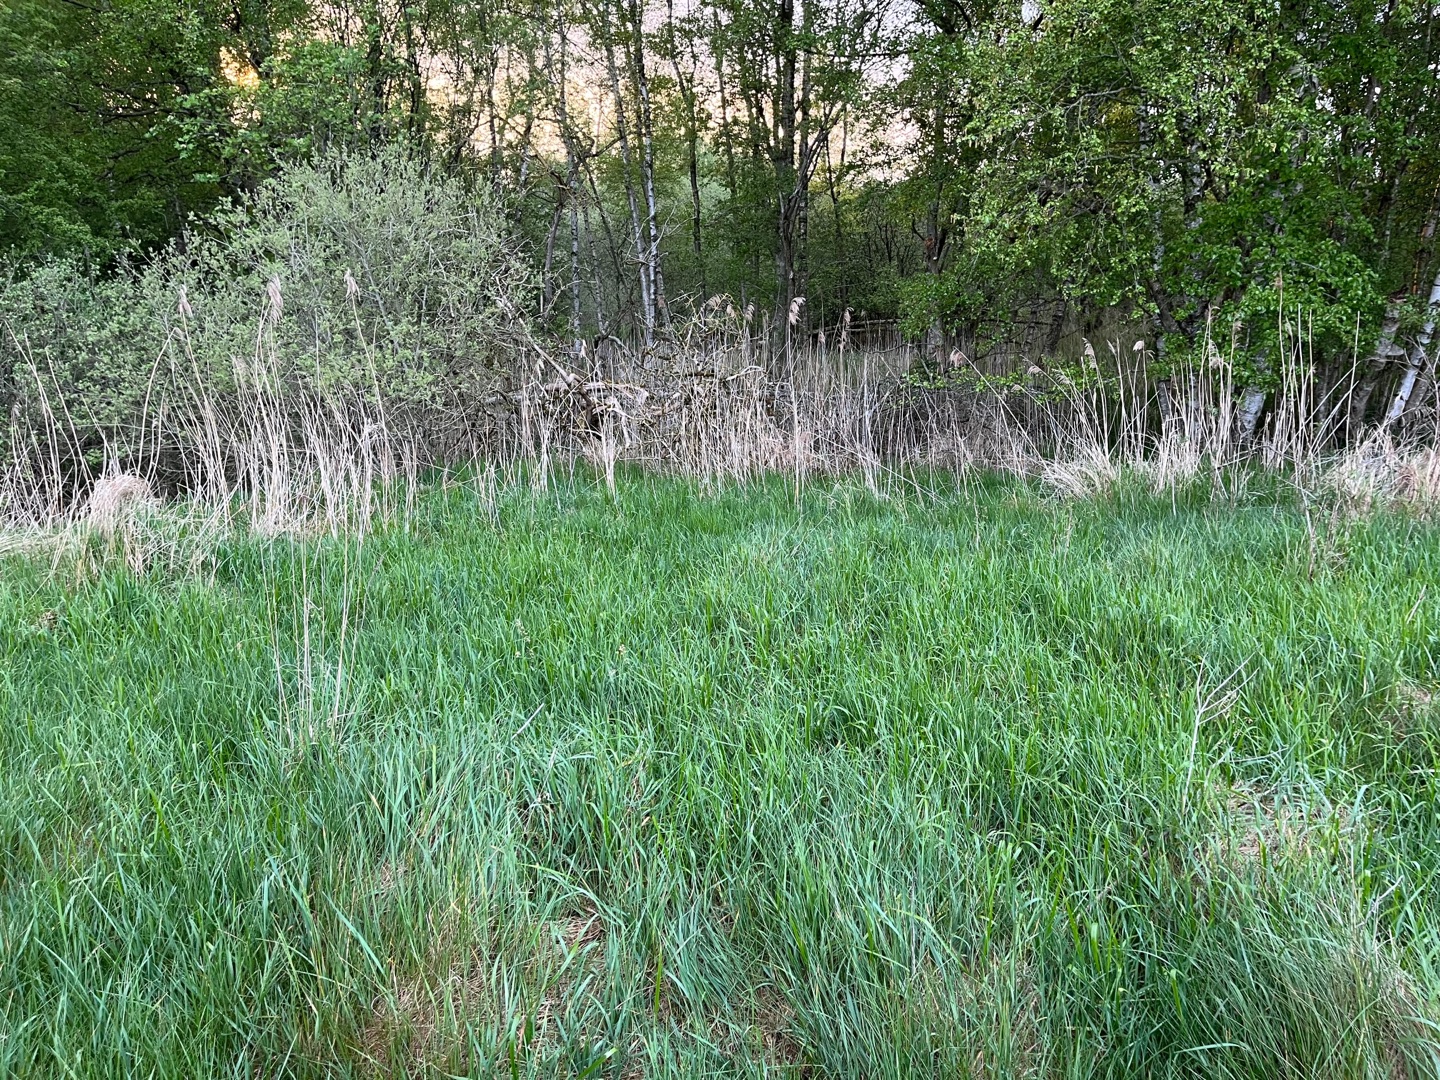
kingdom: Plantae
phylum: Tracheophyta
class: Liliopsida
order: Poales
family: Poaceae
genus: Anthoxanthum
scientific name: Anthoxanthum nitens
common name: Festgræs
